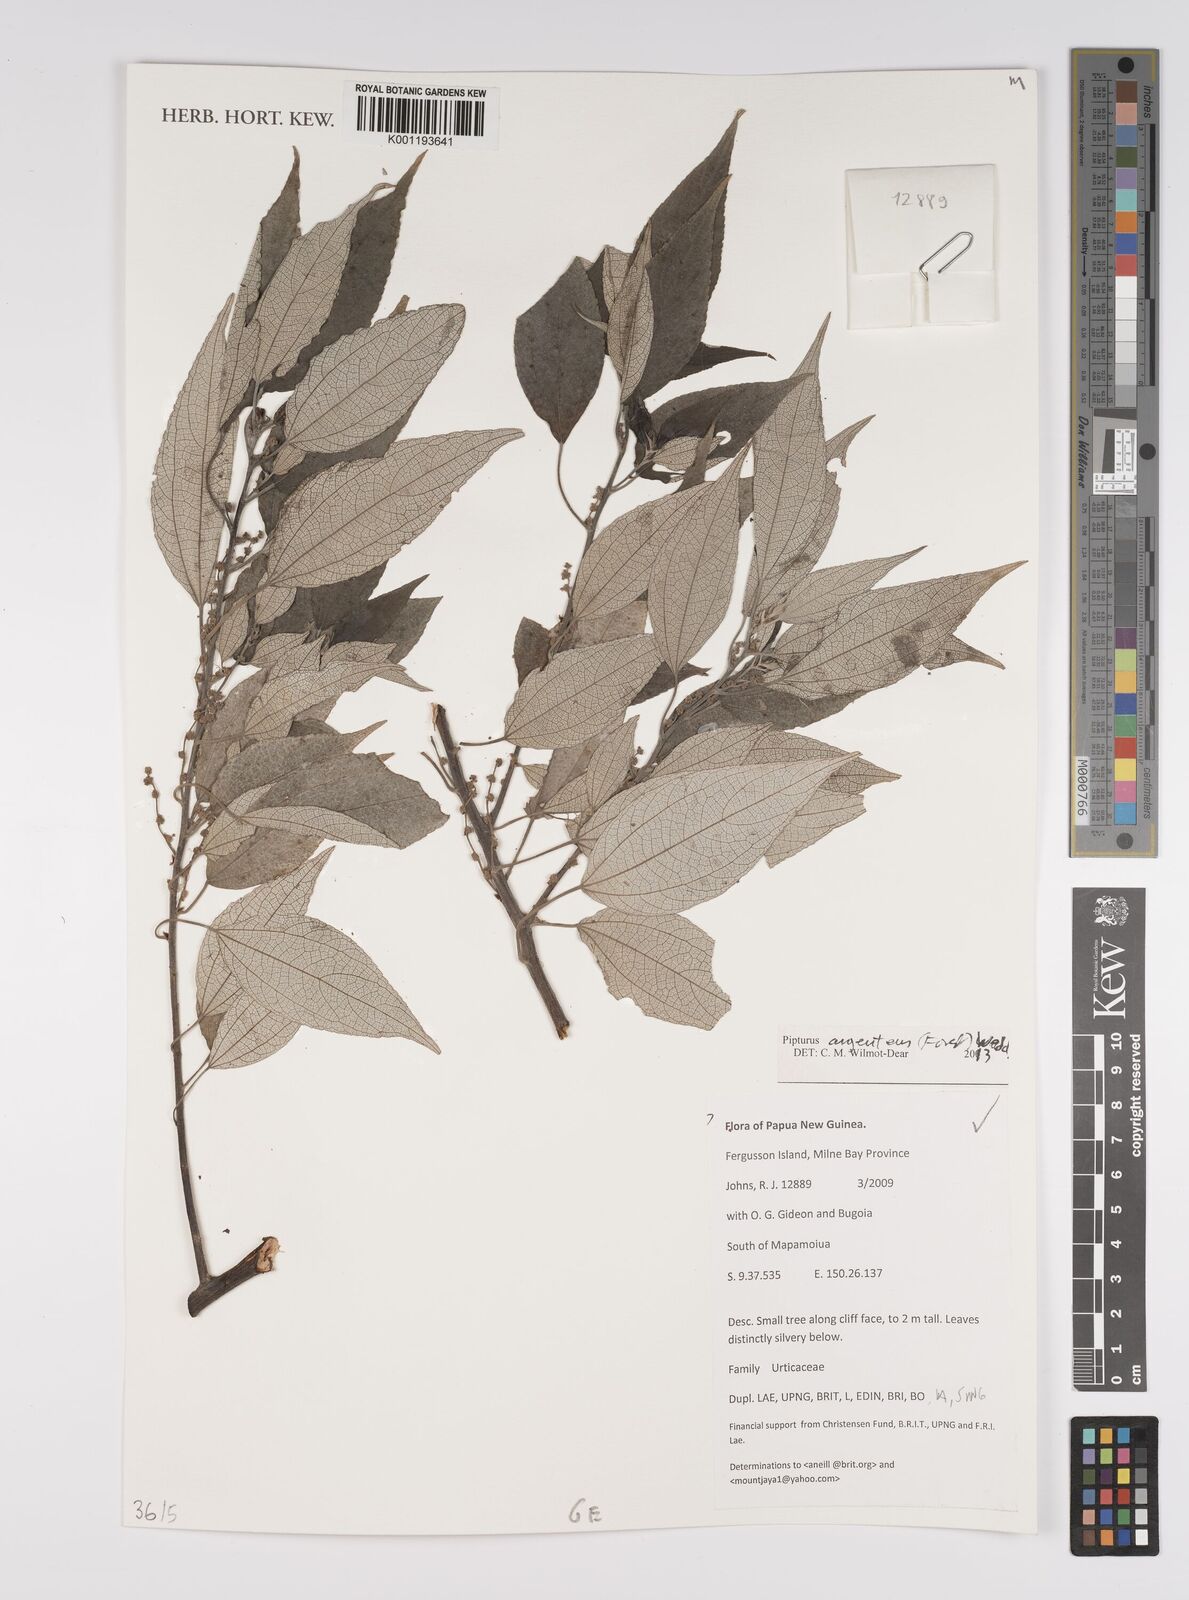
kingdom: Plantae
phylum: Tracheophyta
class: Magnoliopsida
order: Rosales
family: Urticaceae
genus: Pipturus
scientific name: Pipturus argenteus
